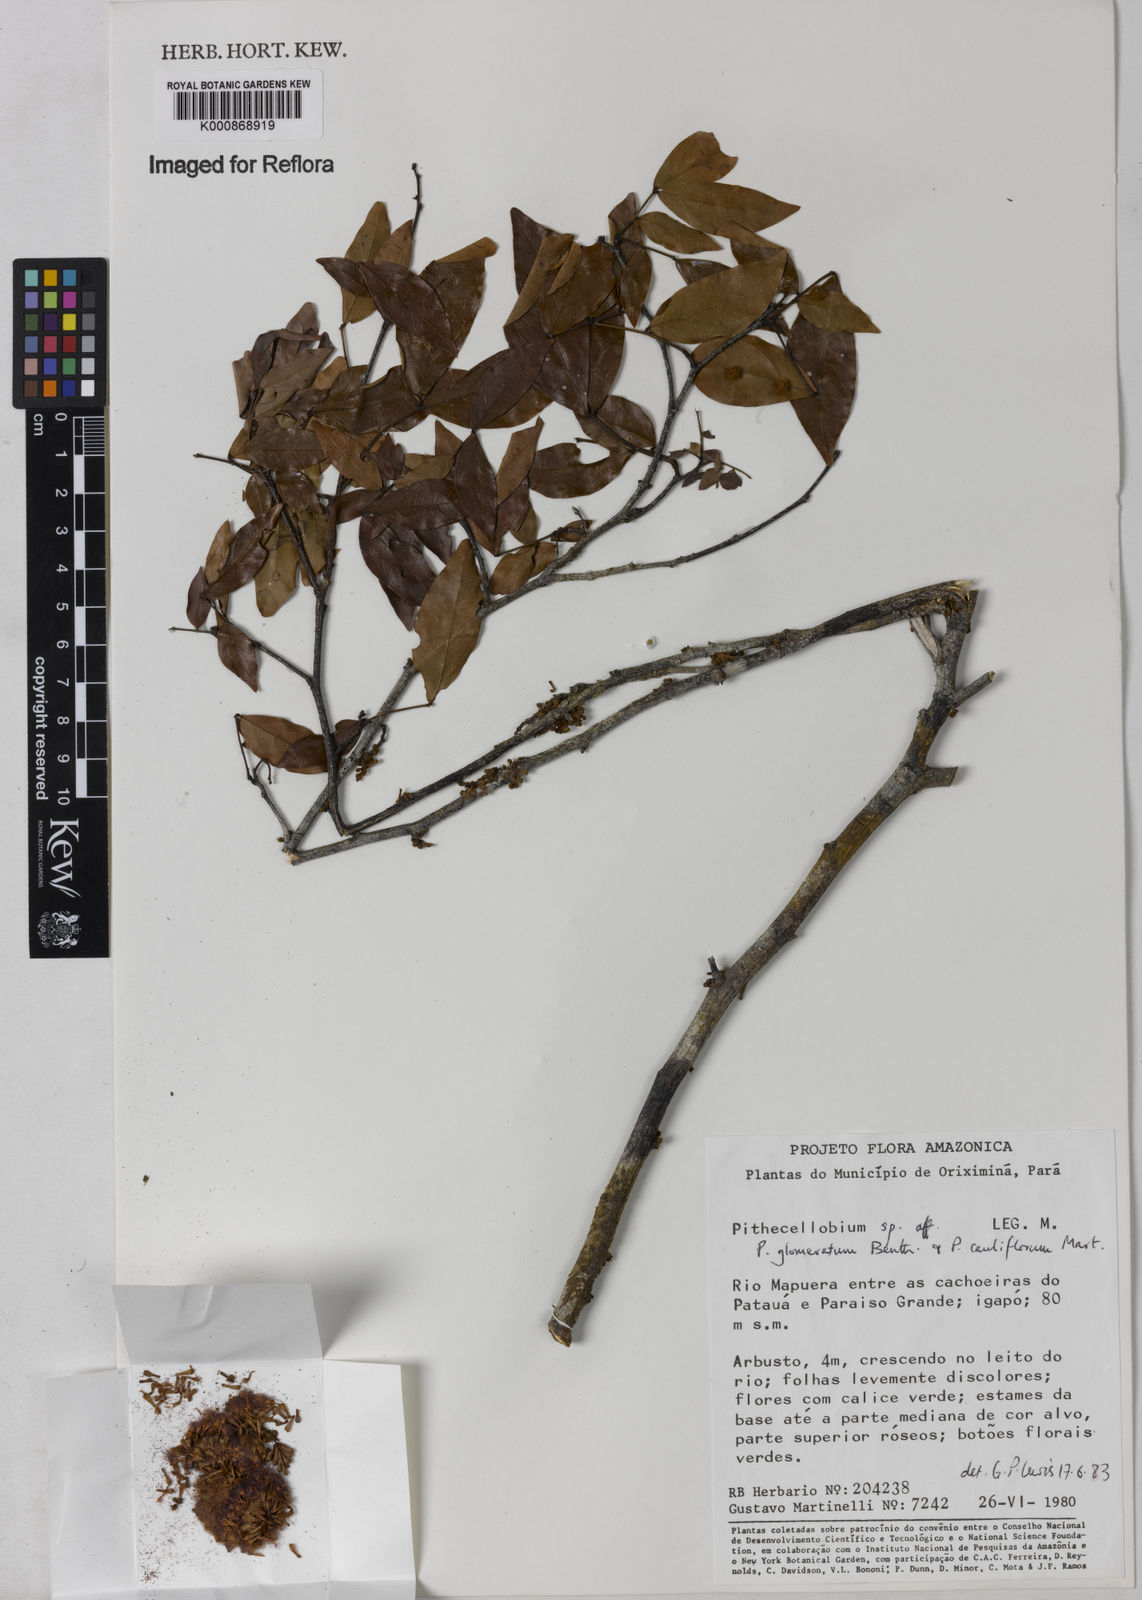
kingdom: Plantae
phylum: Tracheophyta
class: Magnoliopsida
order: Fabales
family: Fabaceae
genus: Zygia
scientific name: Zygia
